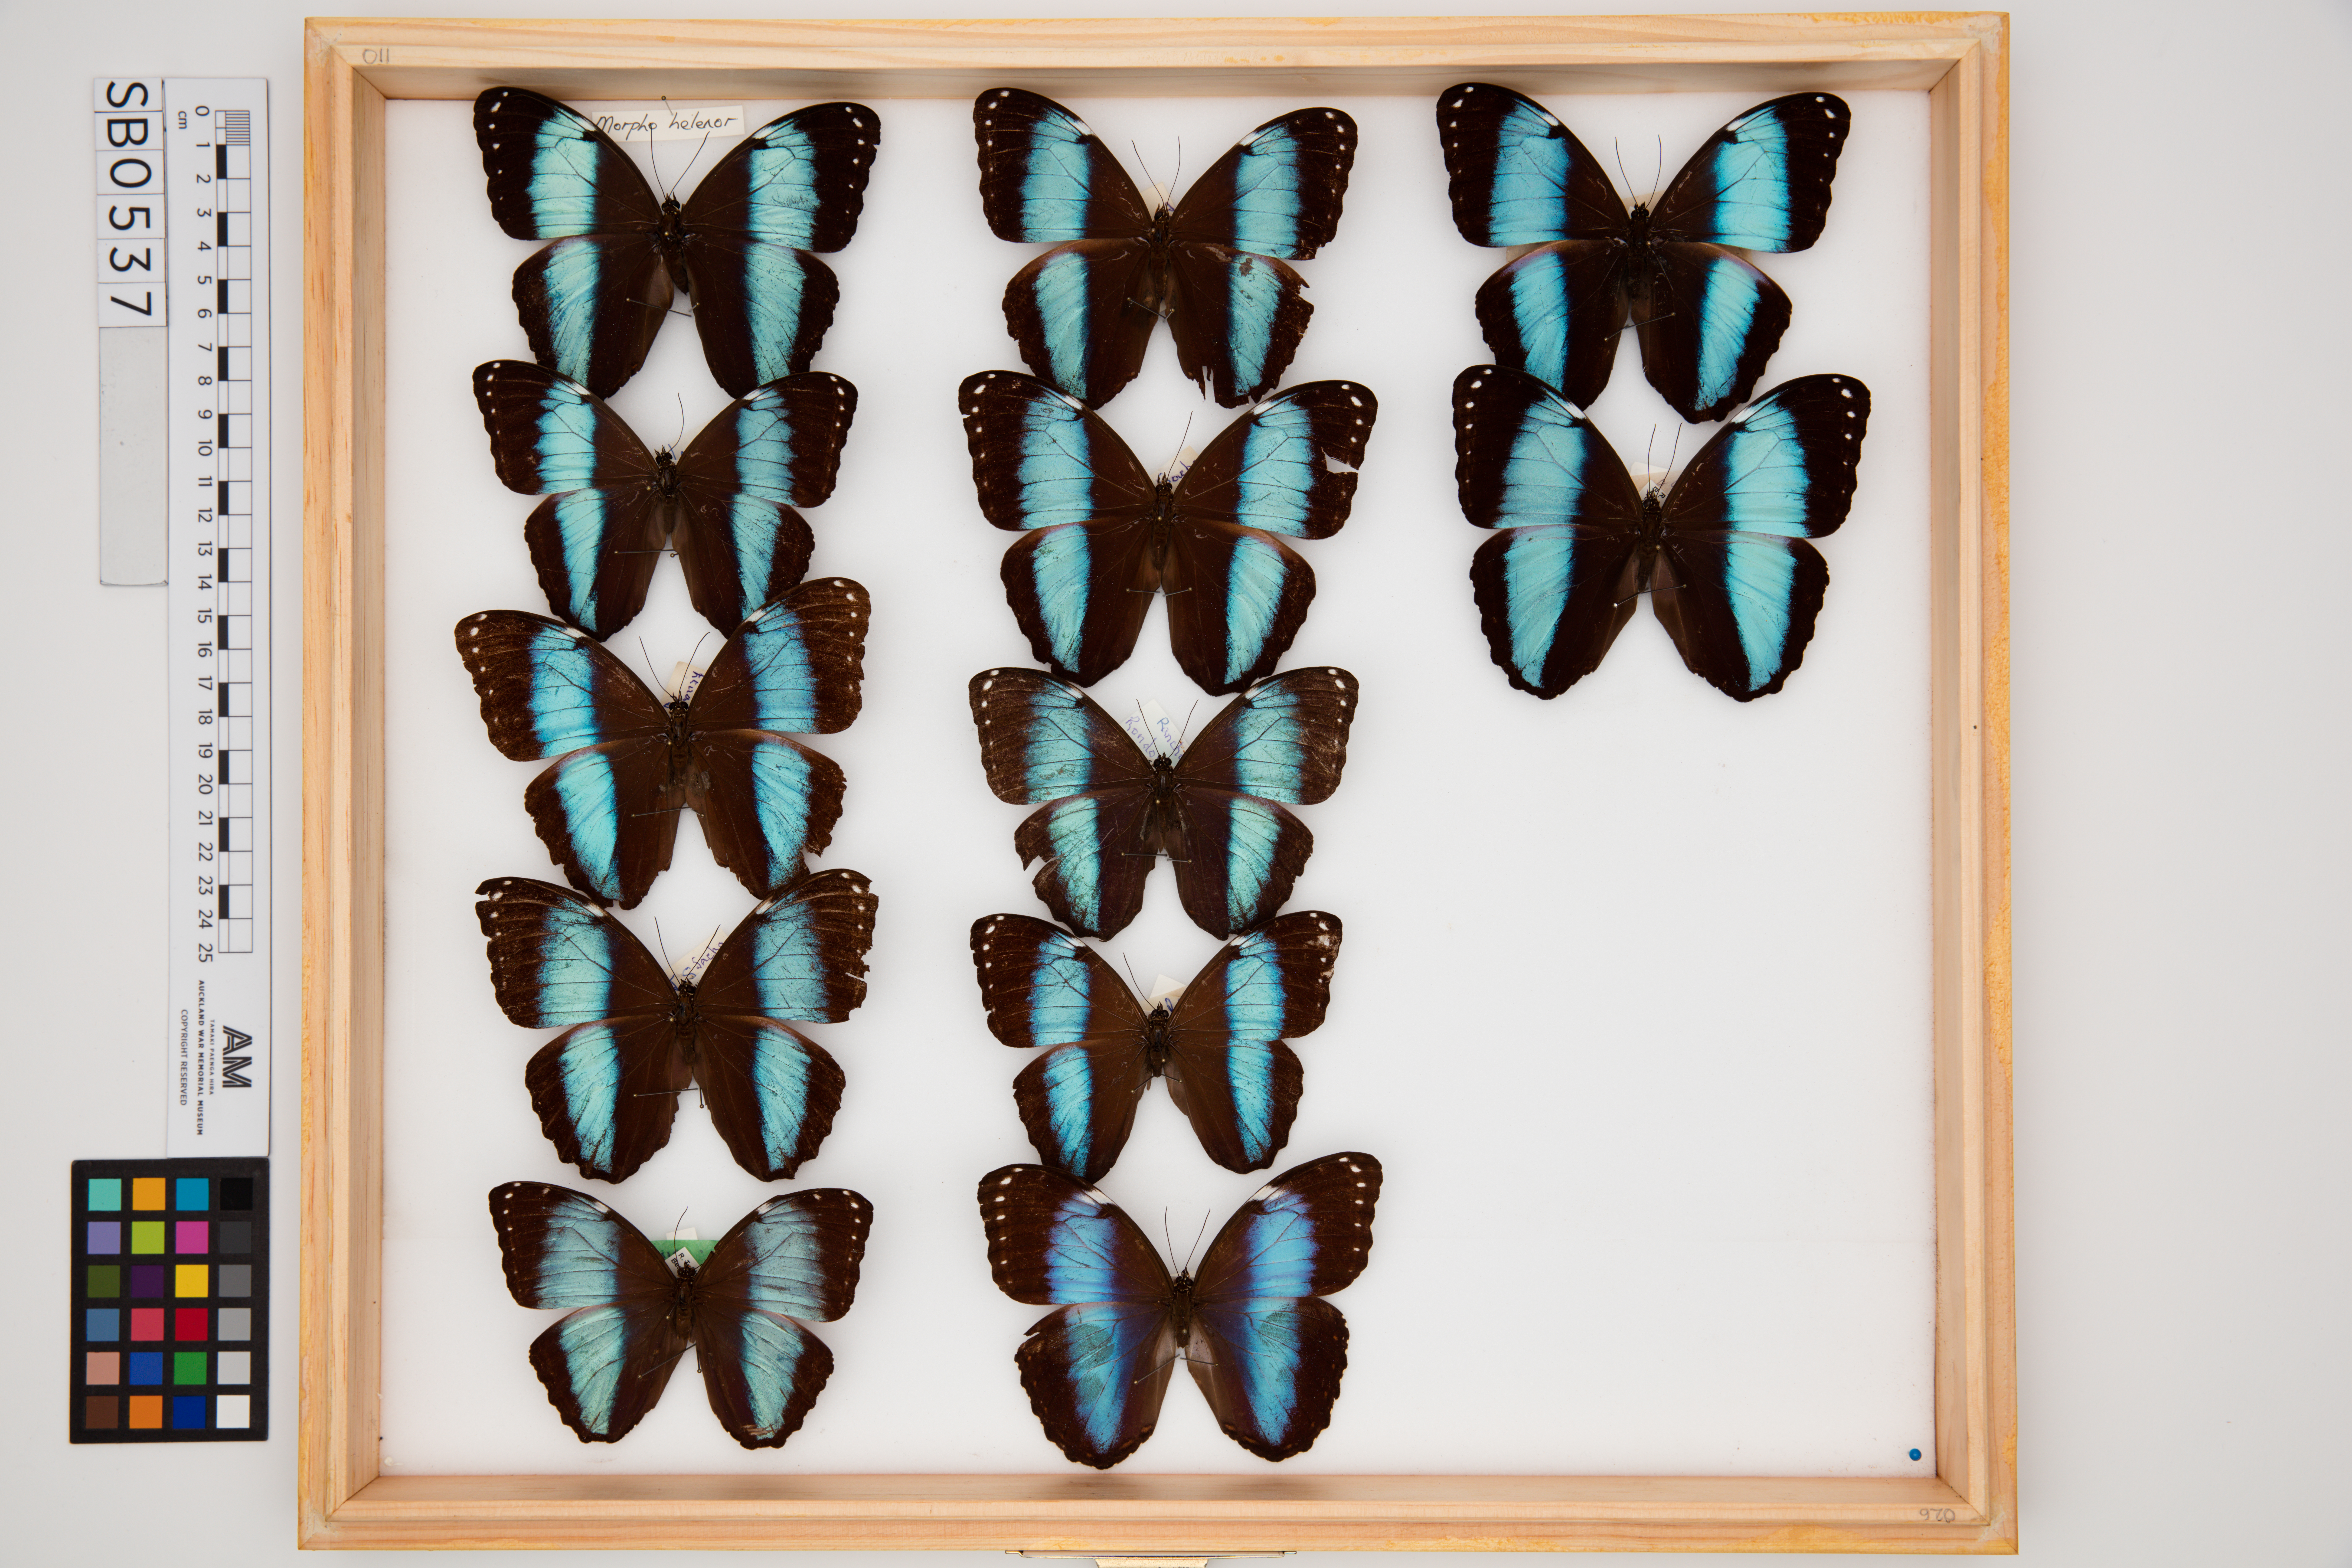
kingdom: Animalia
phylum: Arthropoda
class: Insecta
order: Lepidoptera
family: Nymphalidae
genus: Morpho
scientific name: Morpho helenor
